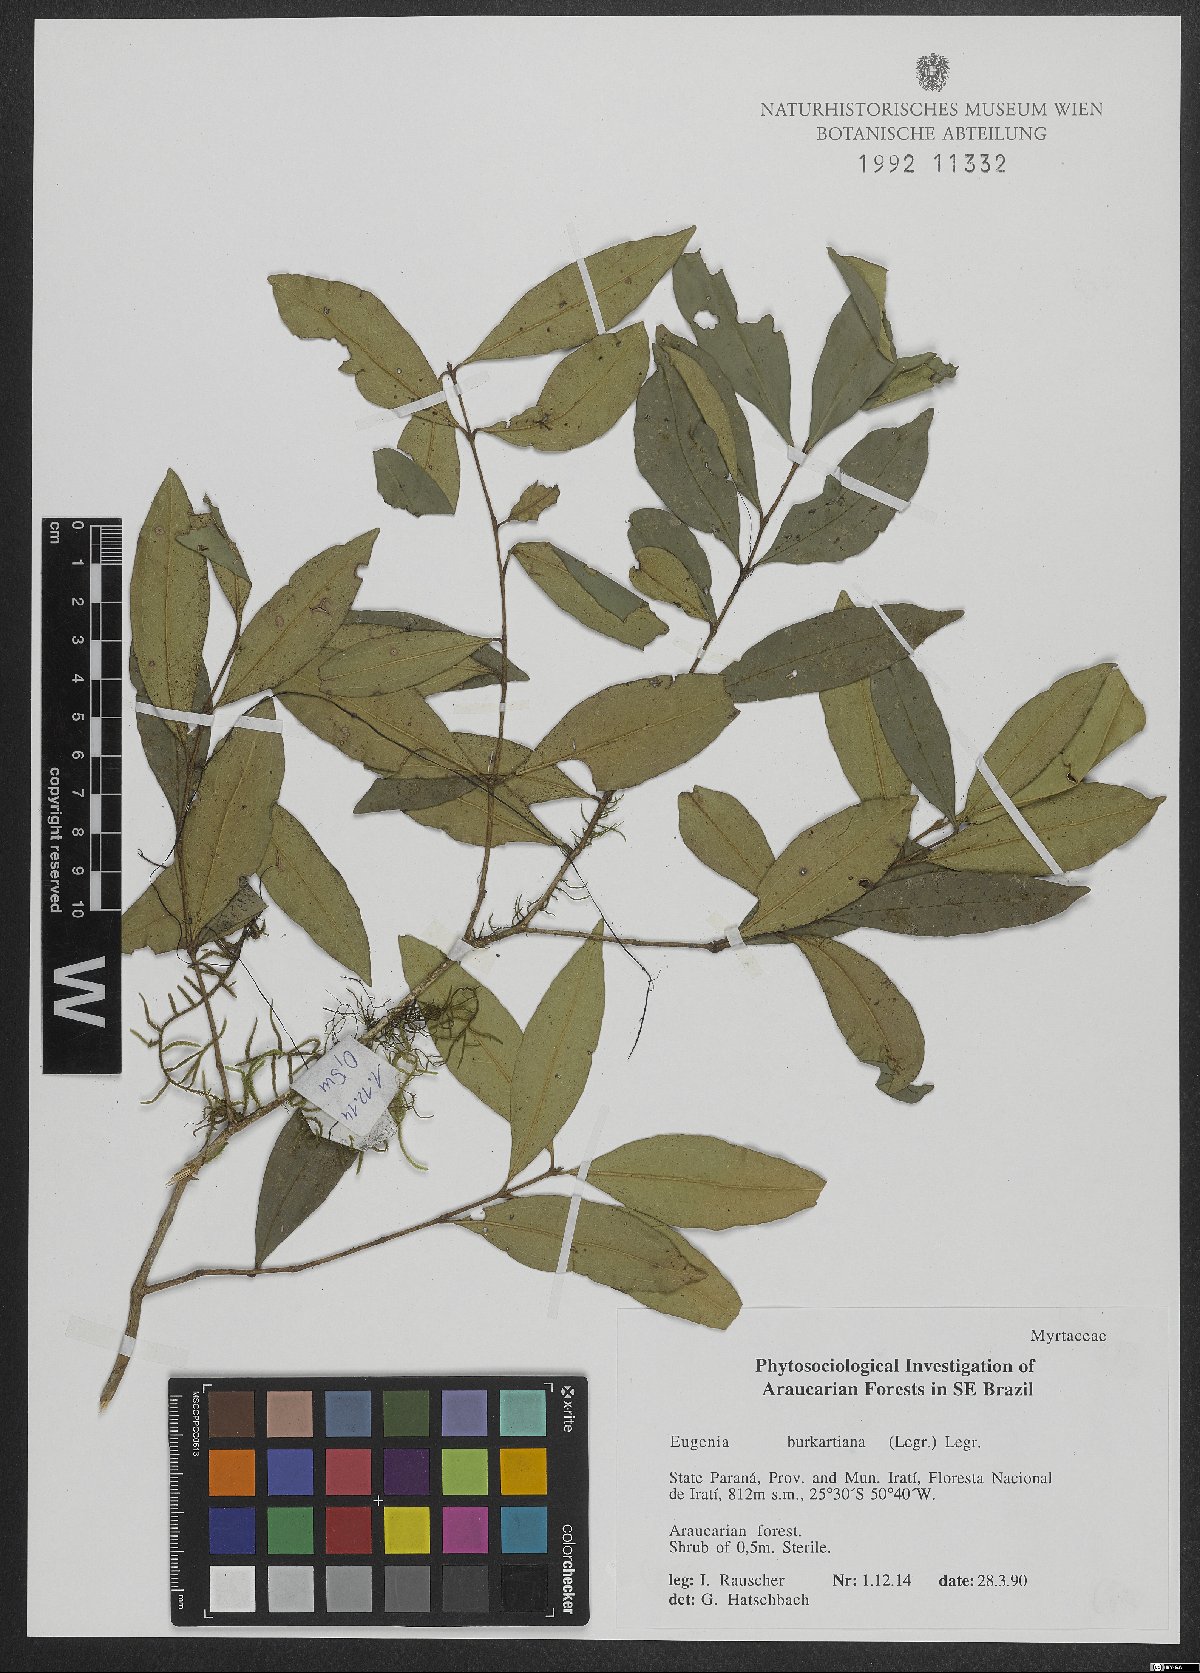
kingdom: Plantae
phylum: Tracheophyta
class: Magnoliopsida
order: Myrtales
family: Myrtaceae
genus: Eugenia
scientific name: Eugenia burkartiana
